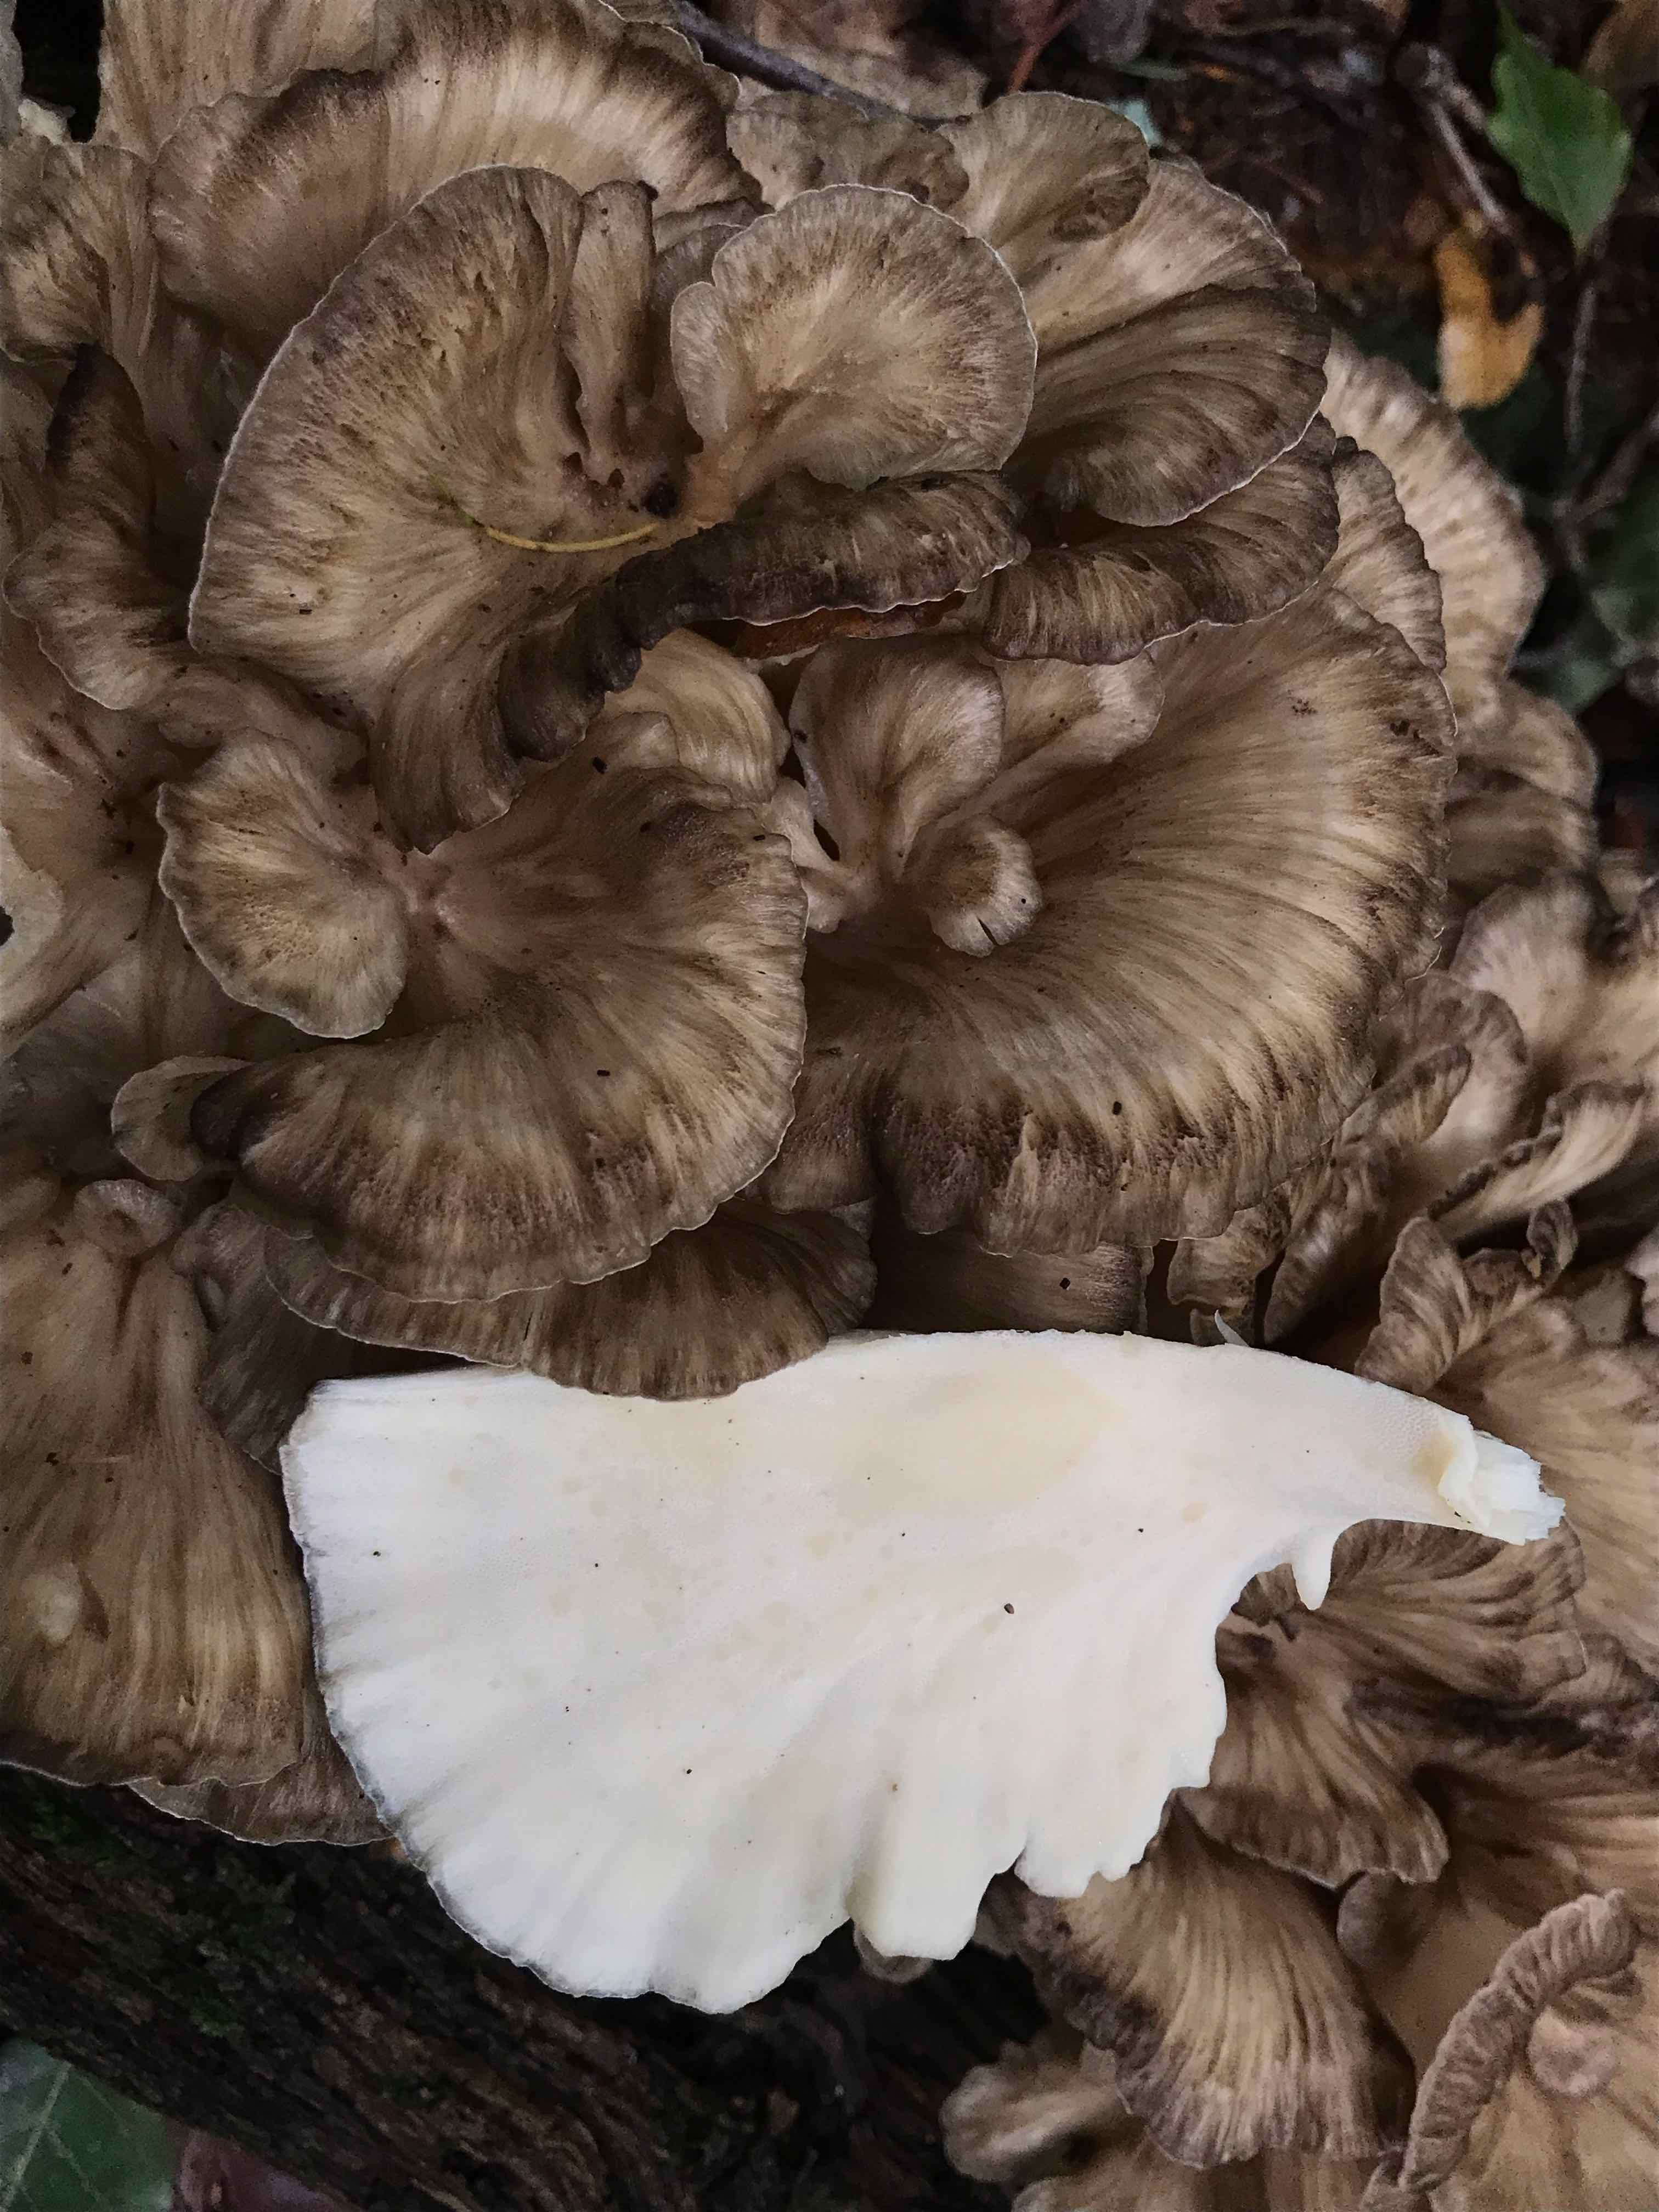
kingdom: Fungi
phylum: Basidiomycota
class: Agaricomycetes
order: Polyporales
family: Grifolaceae
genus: Grifola
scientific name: Grifola frondosa
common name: tueporesvamp
